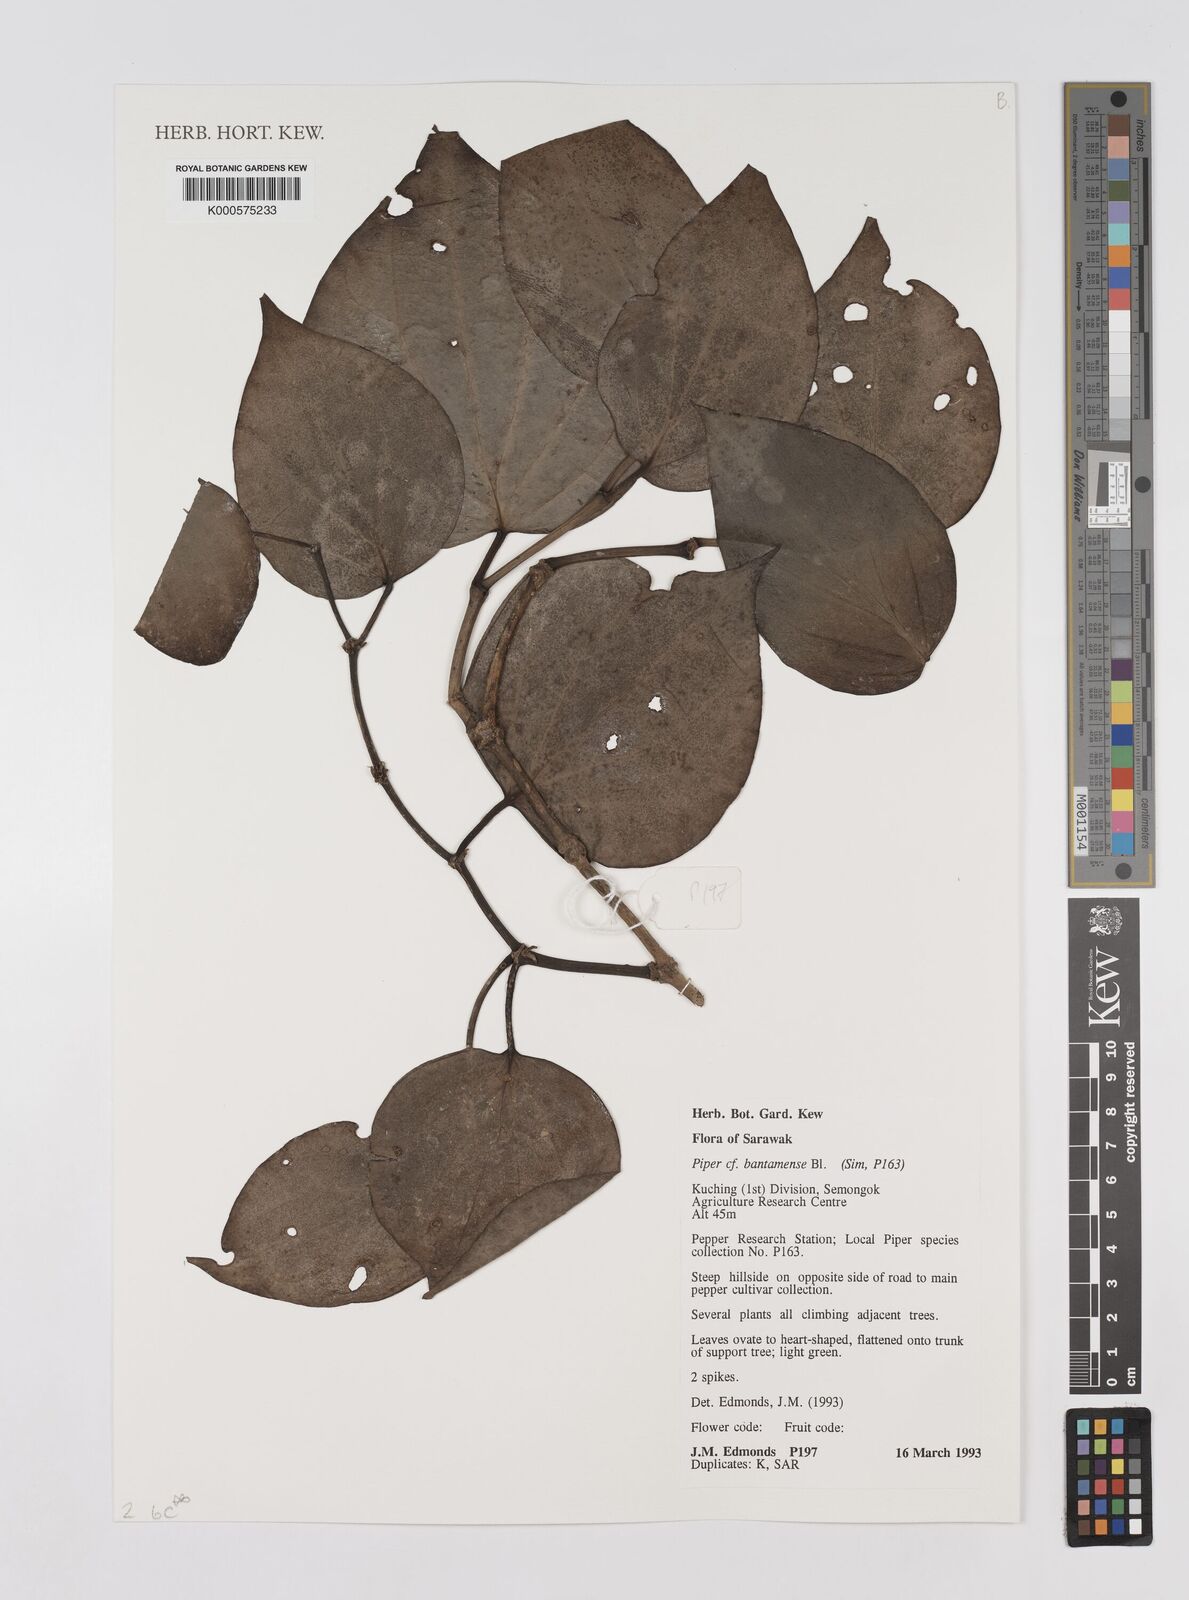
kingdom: Plantae
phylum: Tracheophyta
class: Magnoliopsida
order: Piperales
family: Piperaceae
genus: Piper
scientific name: Piper bantamense
